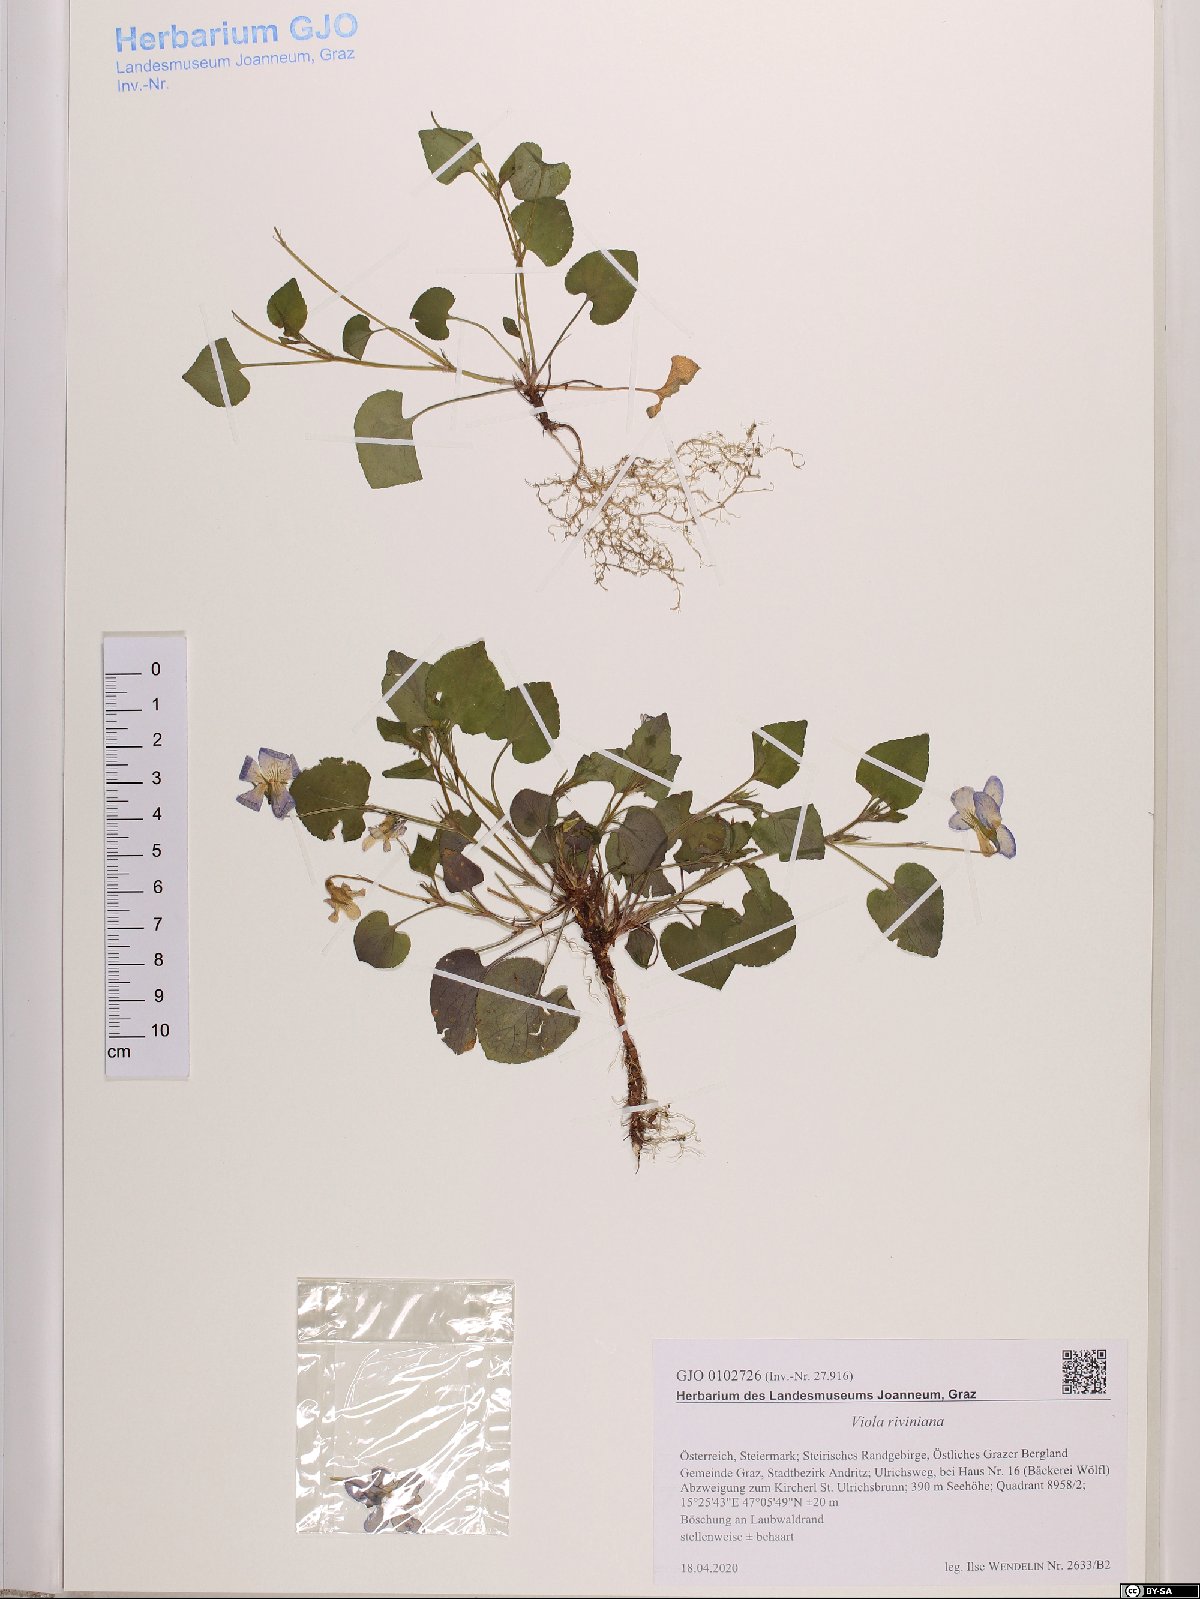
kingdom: Plantae
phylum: Tracheophyta
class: Magnoliopsida
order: Malpighiales
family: Violaceae
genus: Viola
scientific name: Viola riviniana
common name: Common dog-violet
